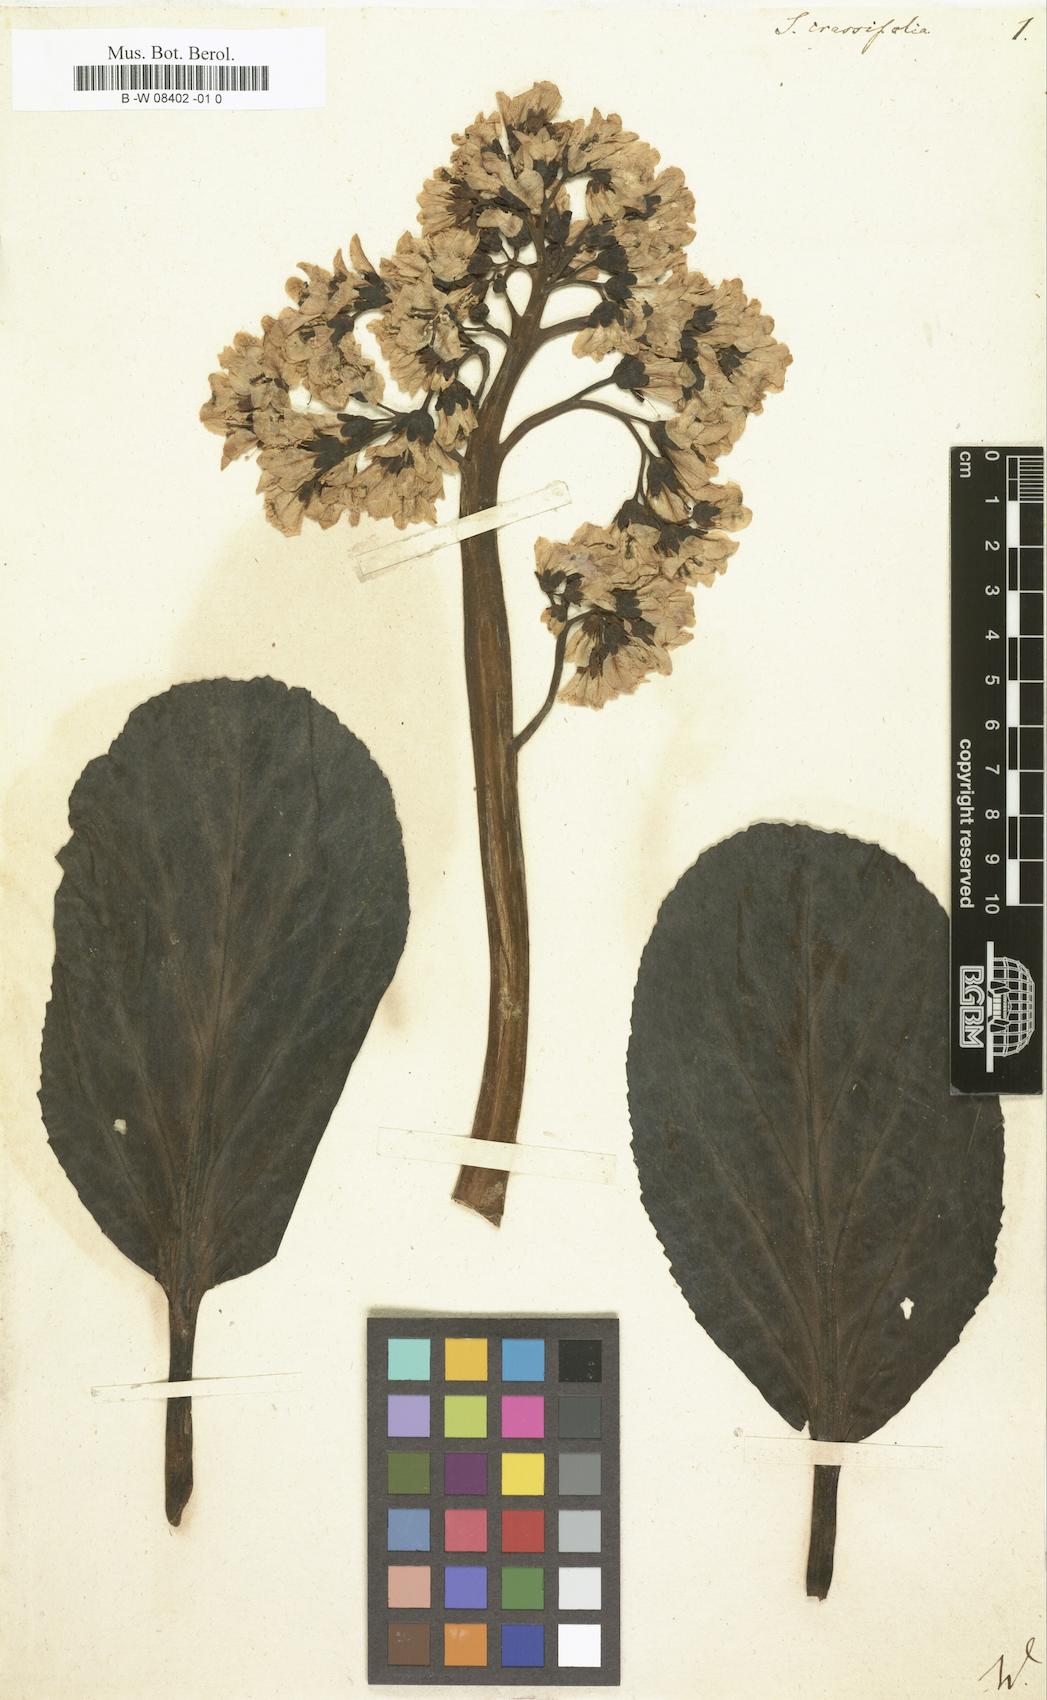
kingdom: Plantae
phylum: Tracheophyta
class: Magnoliopsida
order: Saxifragales
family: Saxifragaceae
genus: Bergenia
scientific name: Bergenia crassifolia
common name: Elephant-ears
